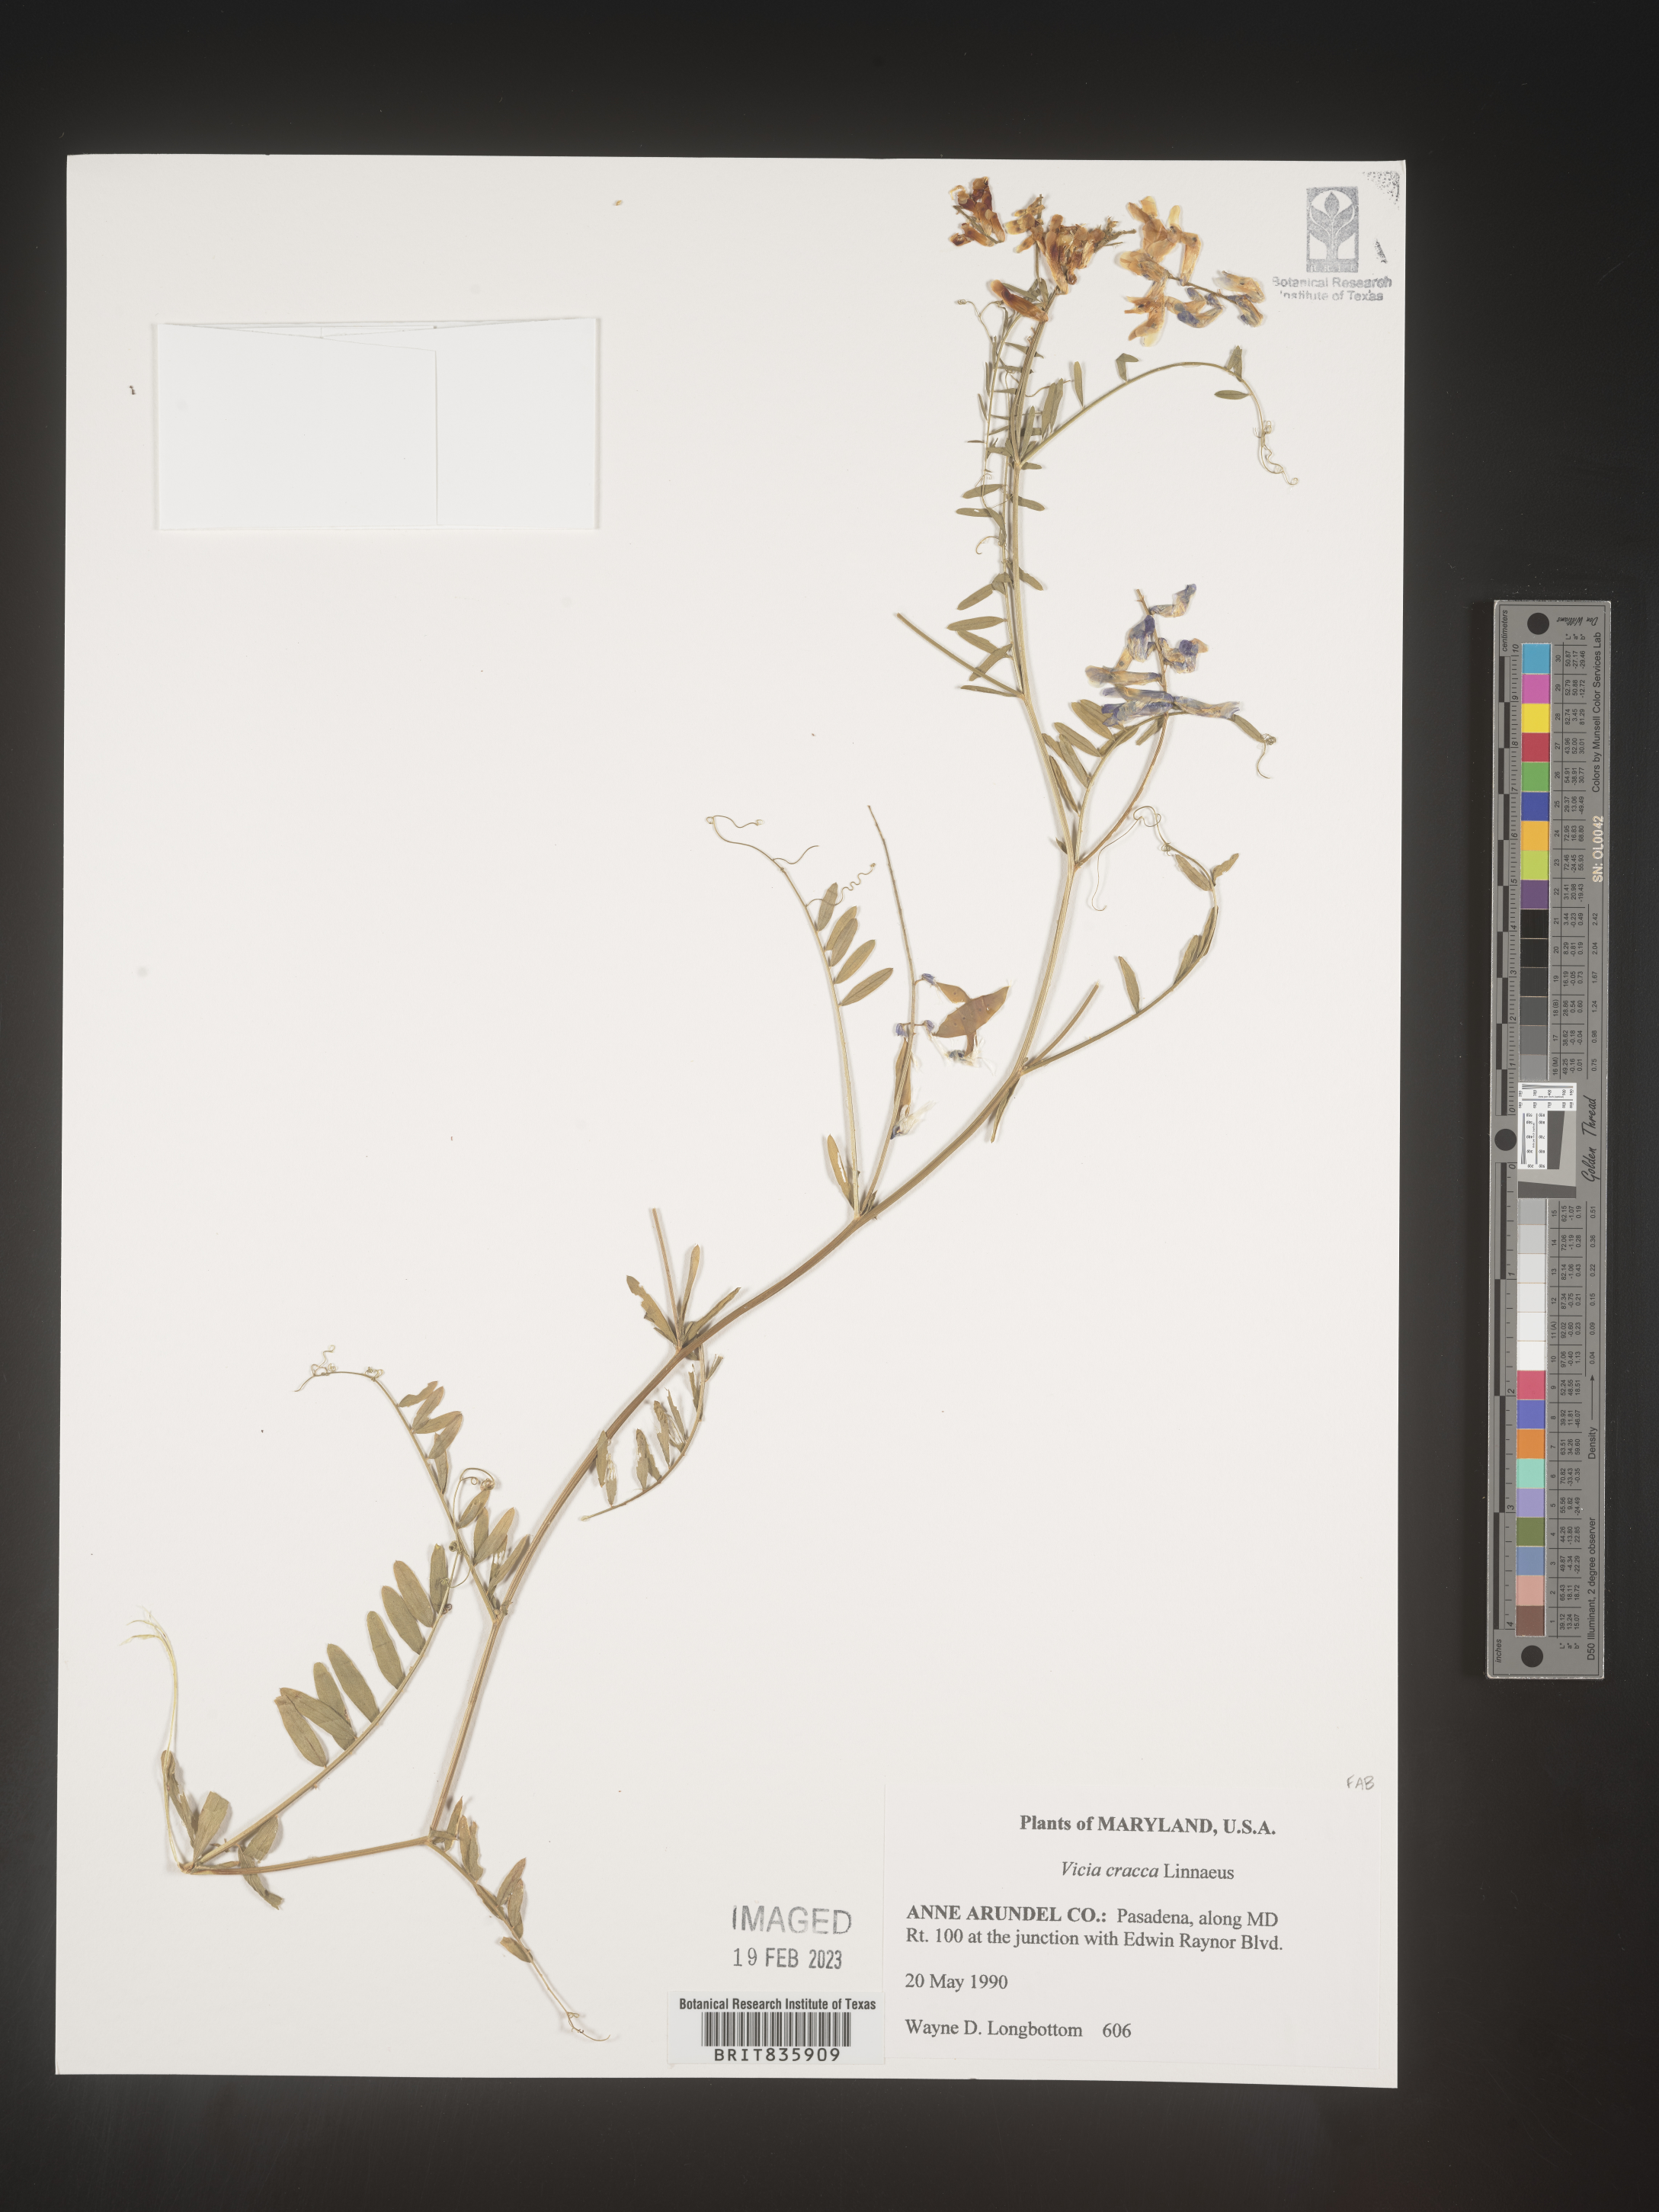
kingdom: Plantae
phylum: Tracheophyta
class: Magnoliopsida
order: Fabales
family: Fabaceae
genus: Vicia
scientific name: Vicia cracca
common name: Bird vetch
